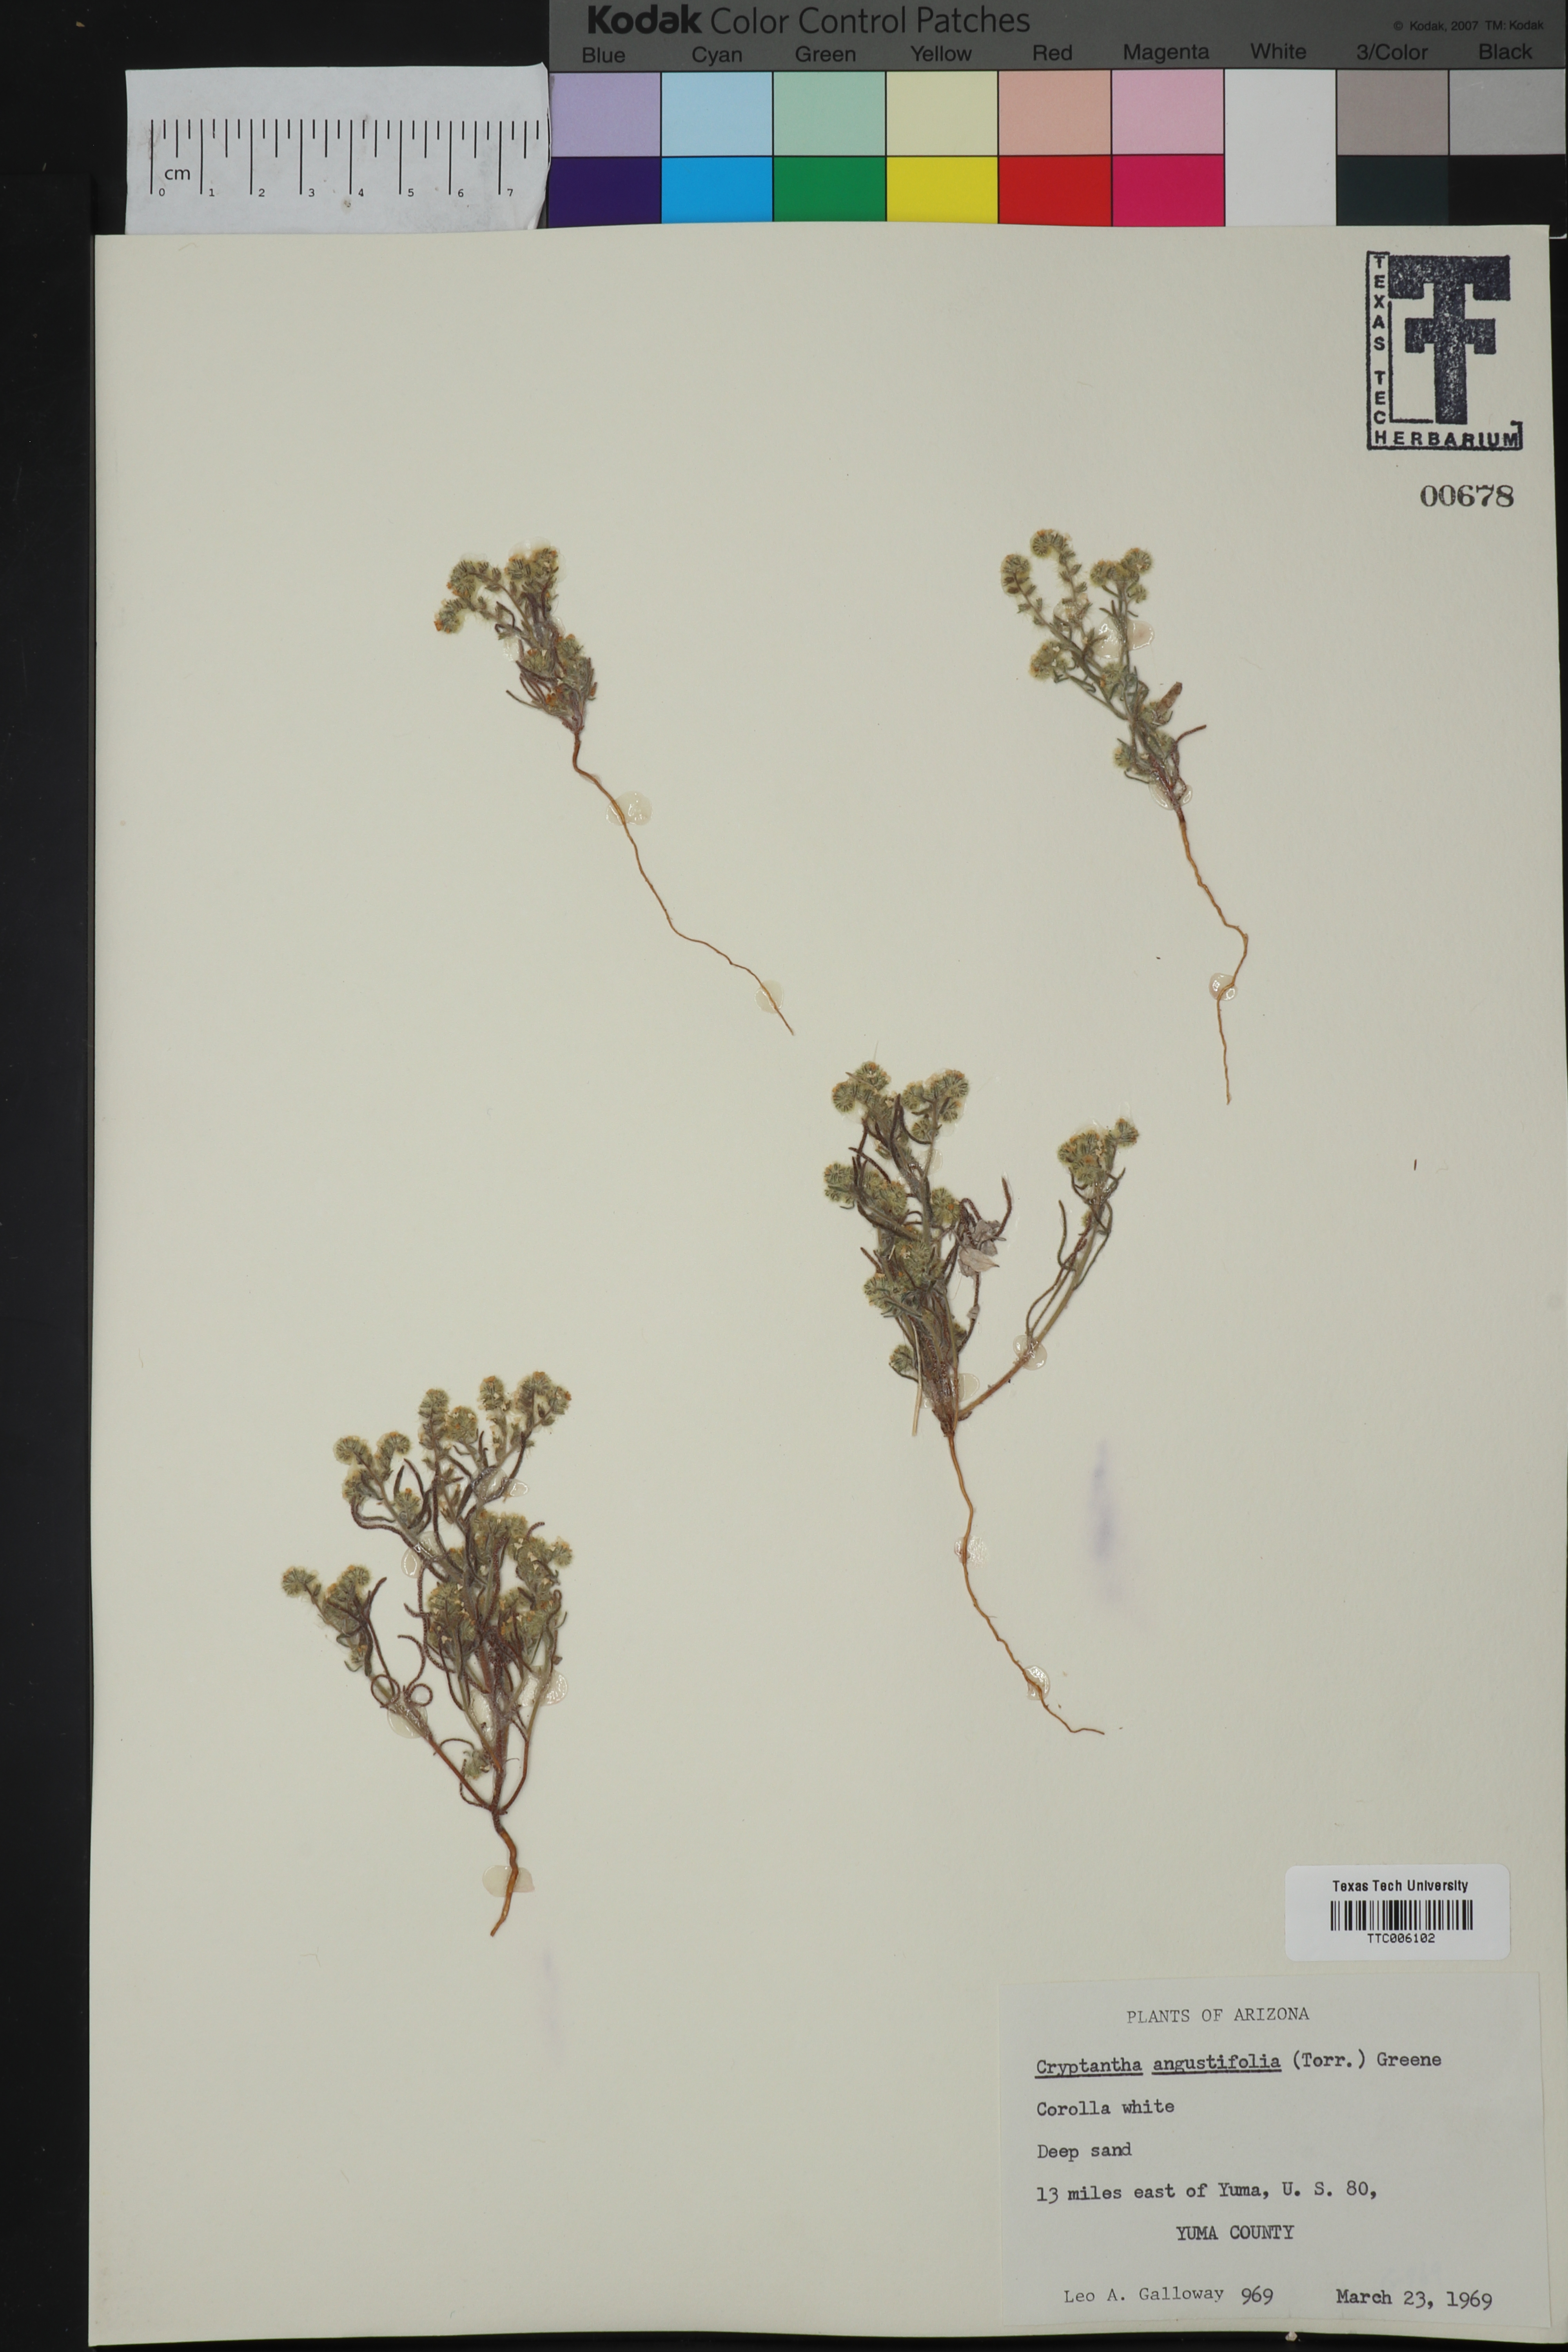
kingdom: Plantae
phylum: Tracheophyta
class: Magnoliopsida
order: Boraginales
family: Boraginaceae
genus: Johnstonella
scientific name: Johnstonella angustifolia
